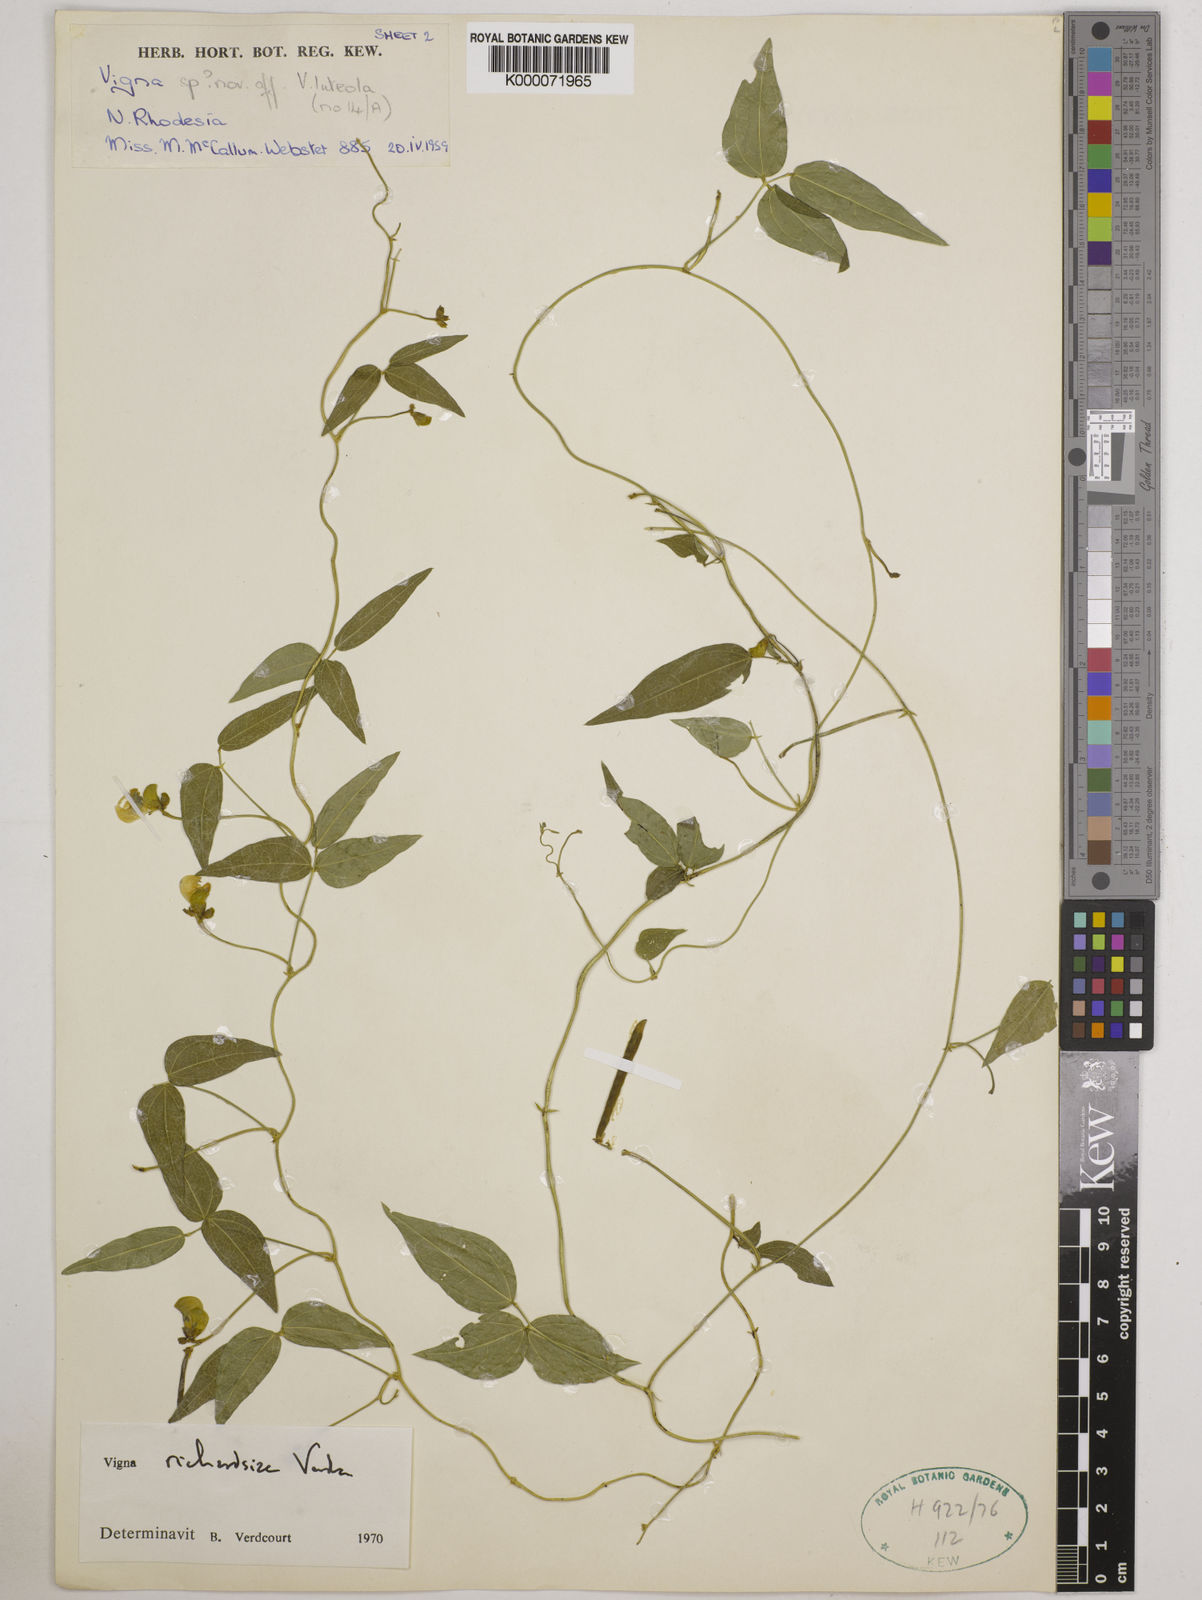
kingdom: Plantae
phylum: Tracheophyta
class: Magnoliopsida
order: Fabales
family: Fabaceae
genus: Vigna
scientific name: Vigna richardsiae
